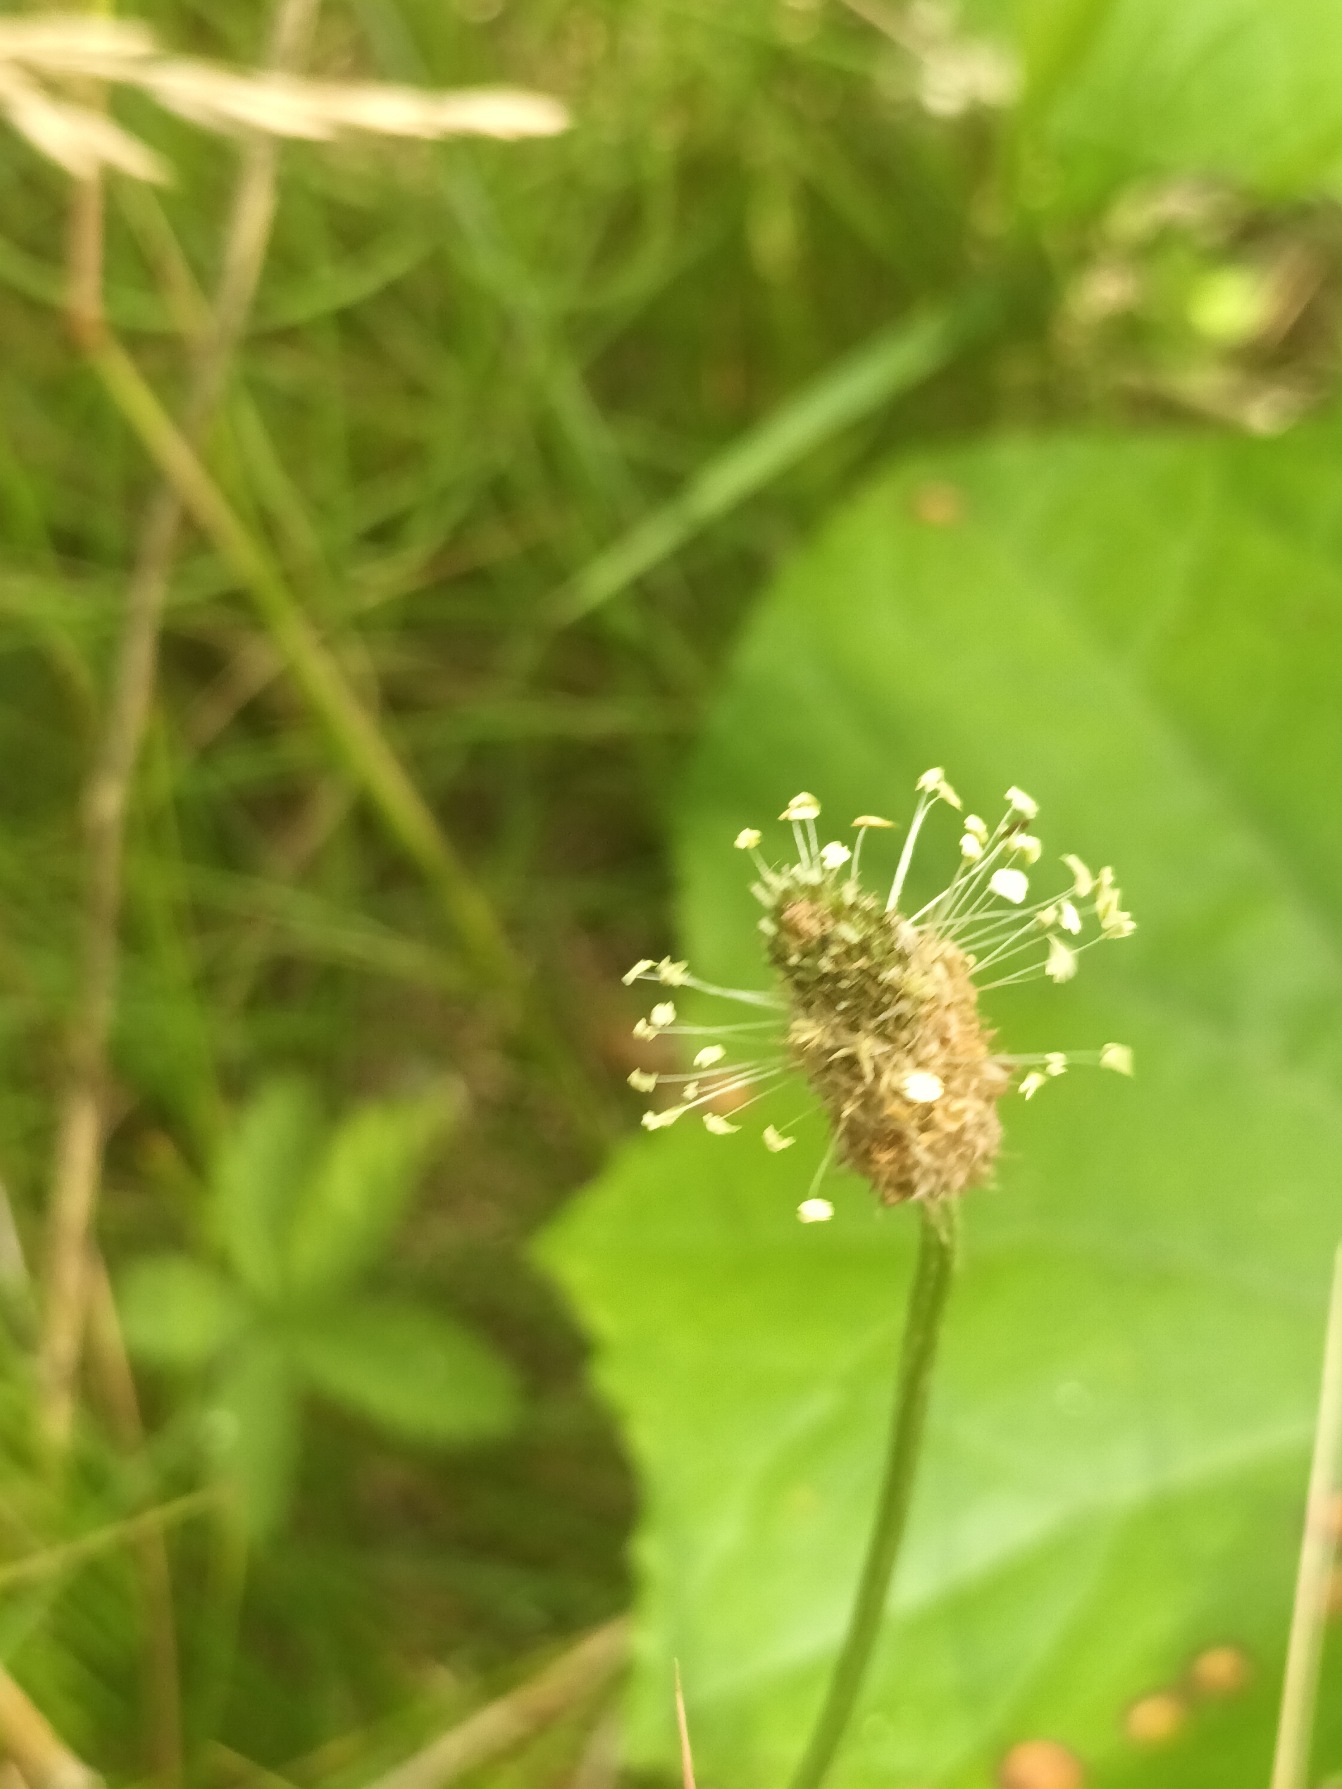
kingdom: Plantae
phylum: Tracheophyta
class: Magnoliopsida
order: Lamiales
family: Plantaginaceae
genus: Plantago
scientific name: Plantago lanceolata
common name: Lancet-vejbred
